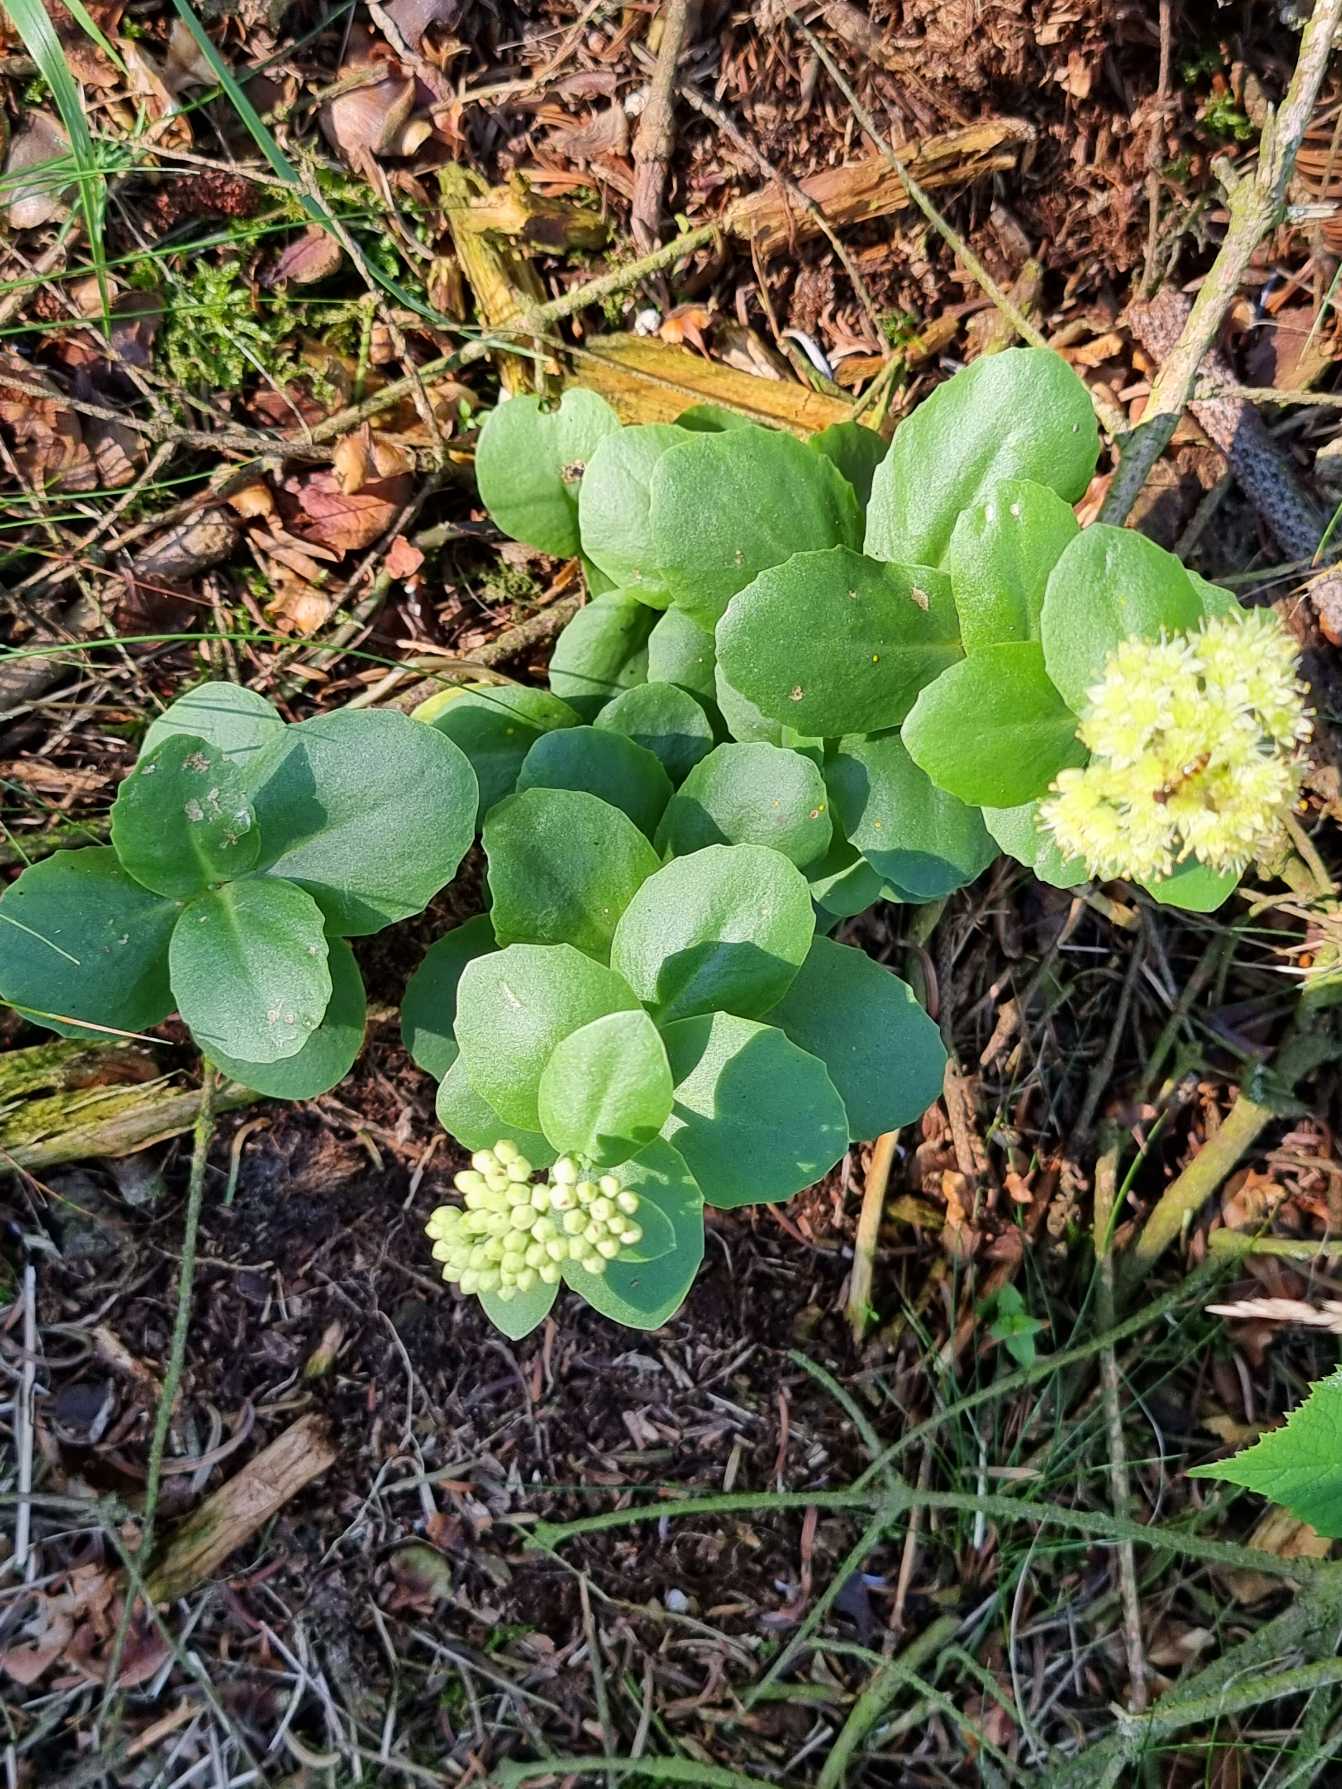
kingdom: Plantae
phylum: Tracheophyta
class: Magnoliopsida
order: Saxifragales
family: Crassulaceae
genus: Hylotelephium
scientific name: Hylotelephium maximum
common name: Almindelig sankthansurt
